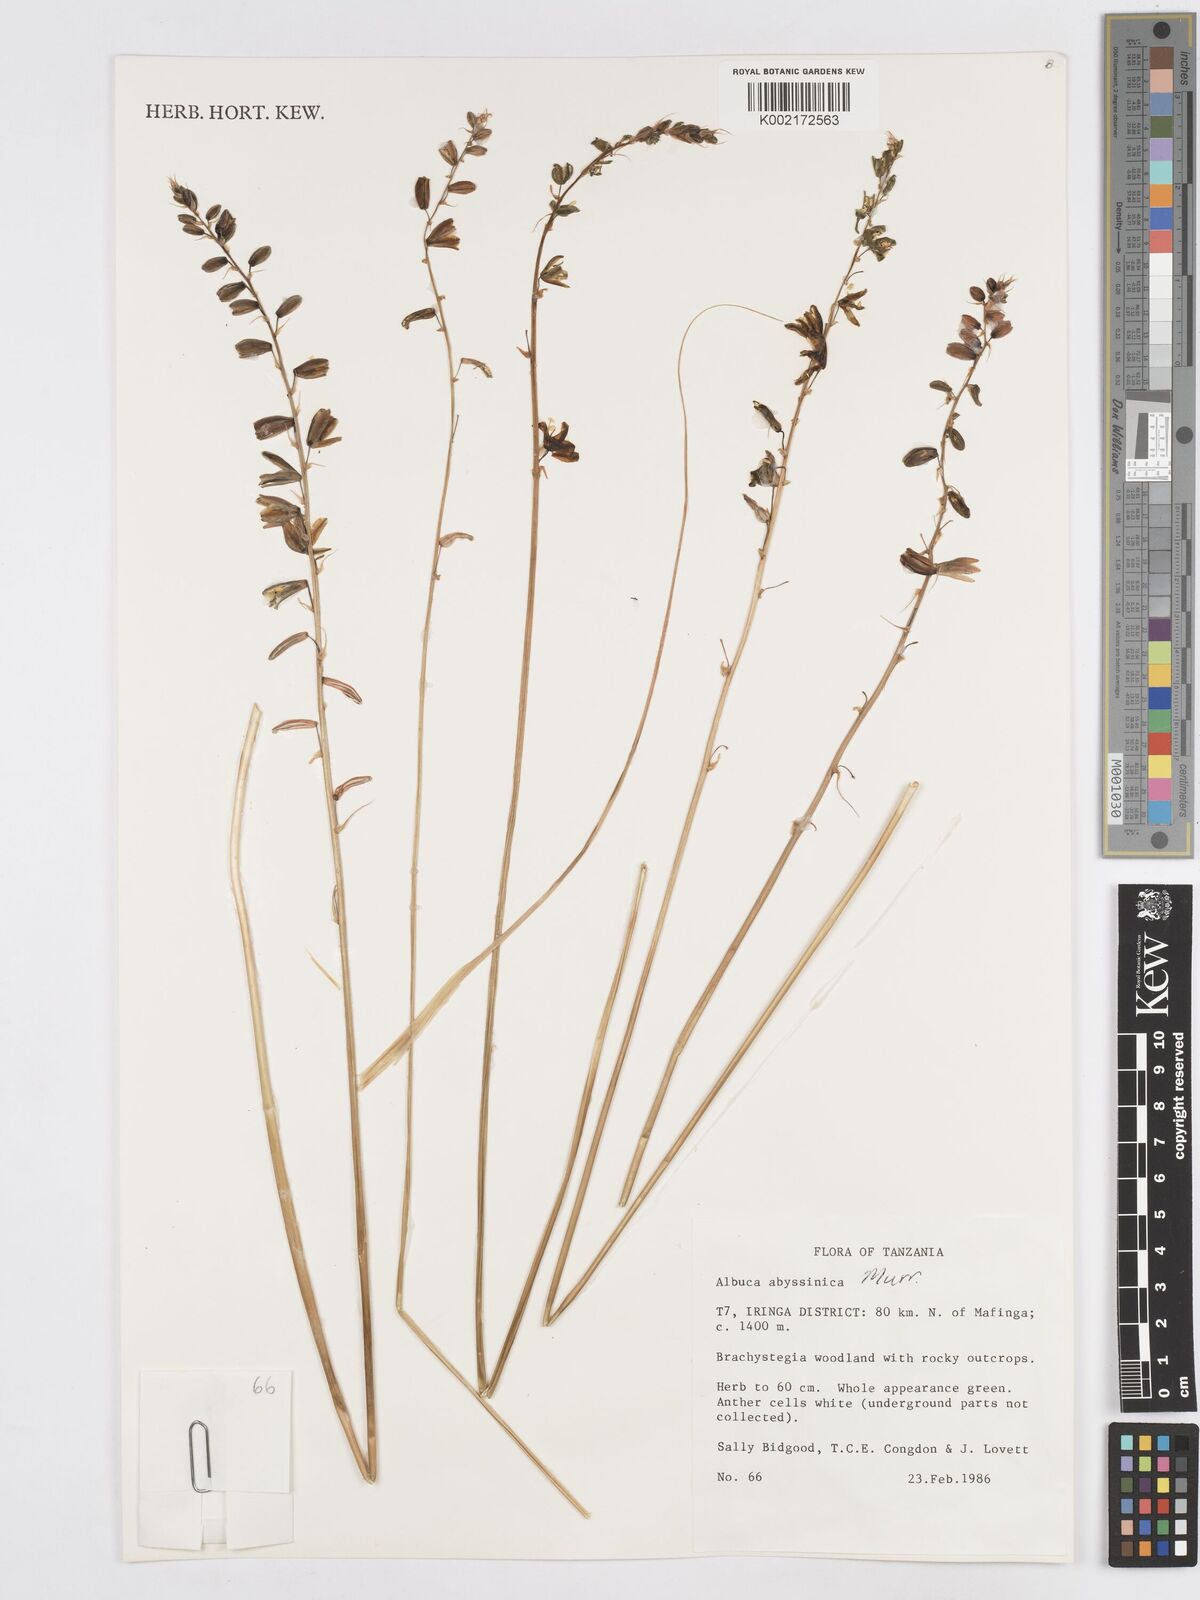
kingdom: Plantae
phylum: Tracheophyta
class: Liliopsida
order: Asparagales
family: Asparagaceae
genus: Albuca
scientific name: Albuca abyssinica
